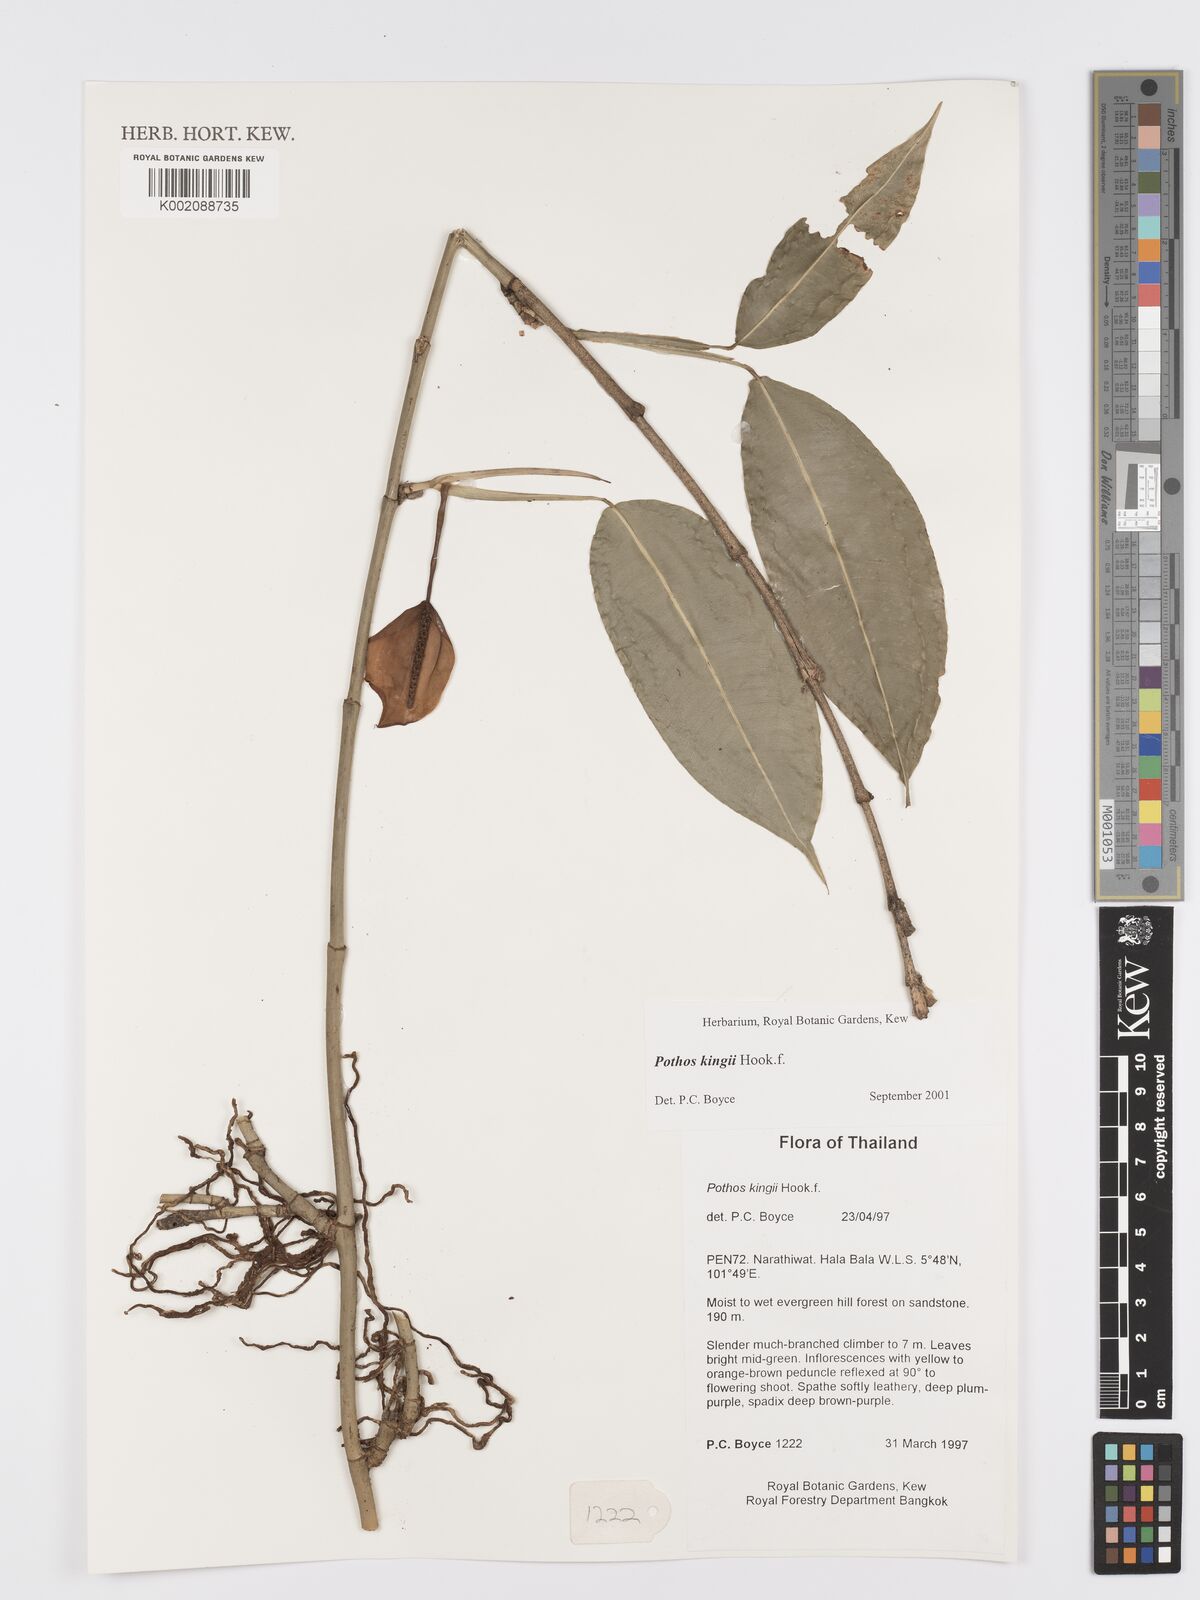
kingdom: Plantae
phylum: Tracheophyta
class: Liliopsida
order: Alismatales
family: Araceae
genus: Pothos
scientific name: Pothos kingii
